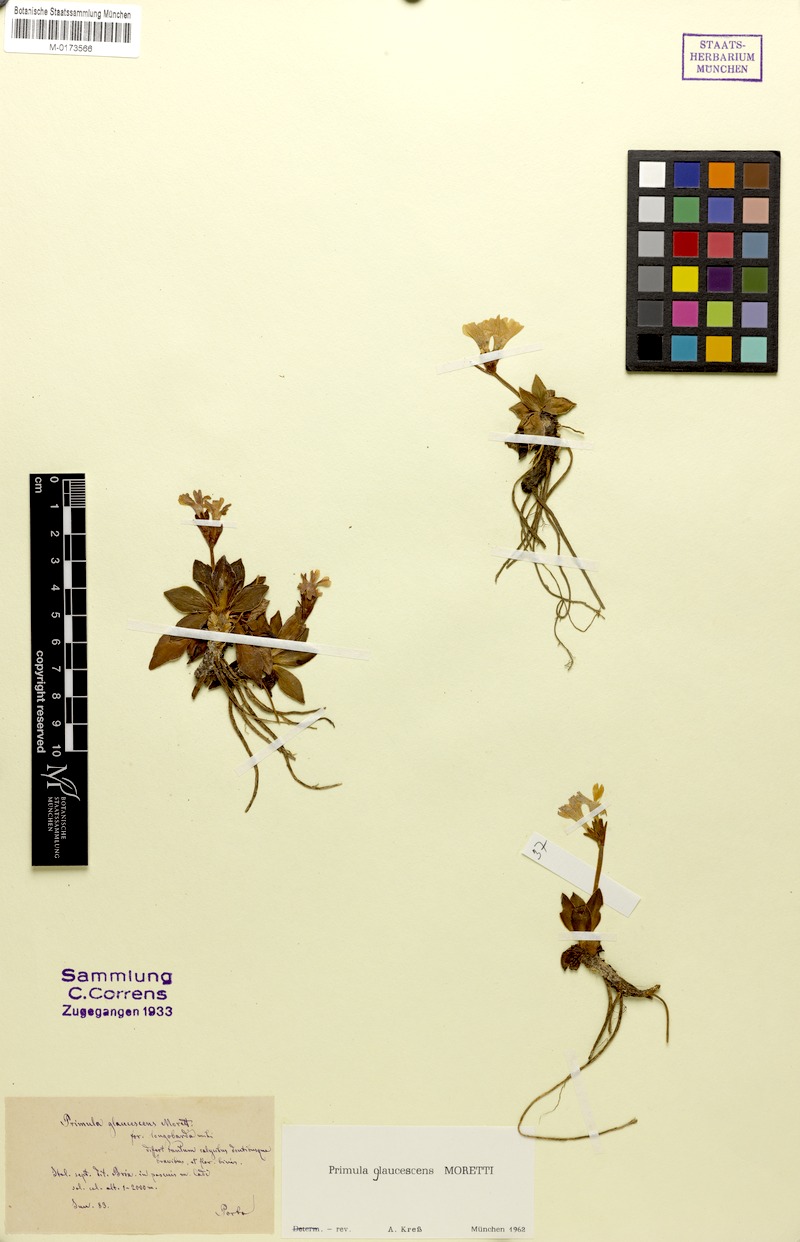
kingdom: Plantae
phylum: Tracheophyta
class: Magnoliopsida
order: Ericales
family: Primulaceae
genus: Primula
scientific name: Primula glaucescens
